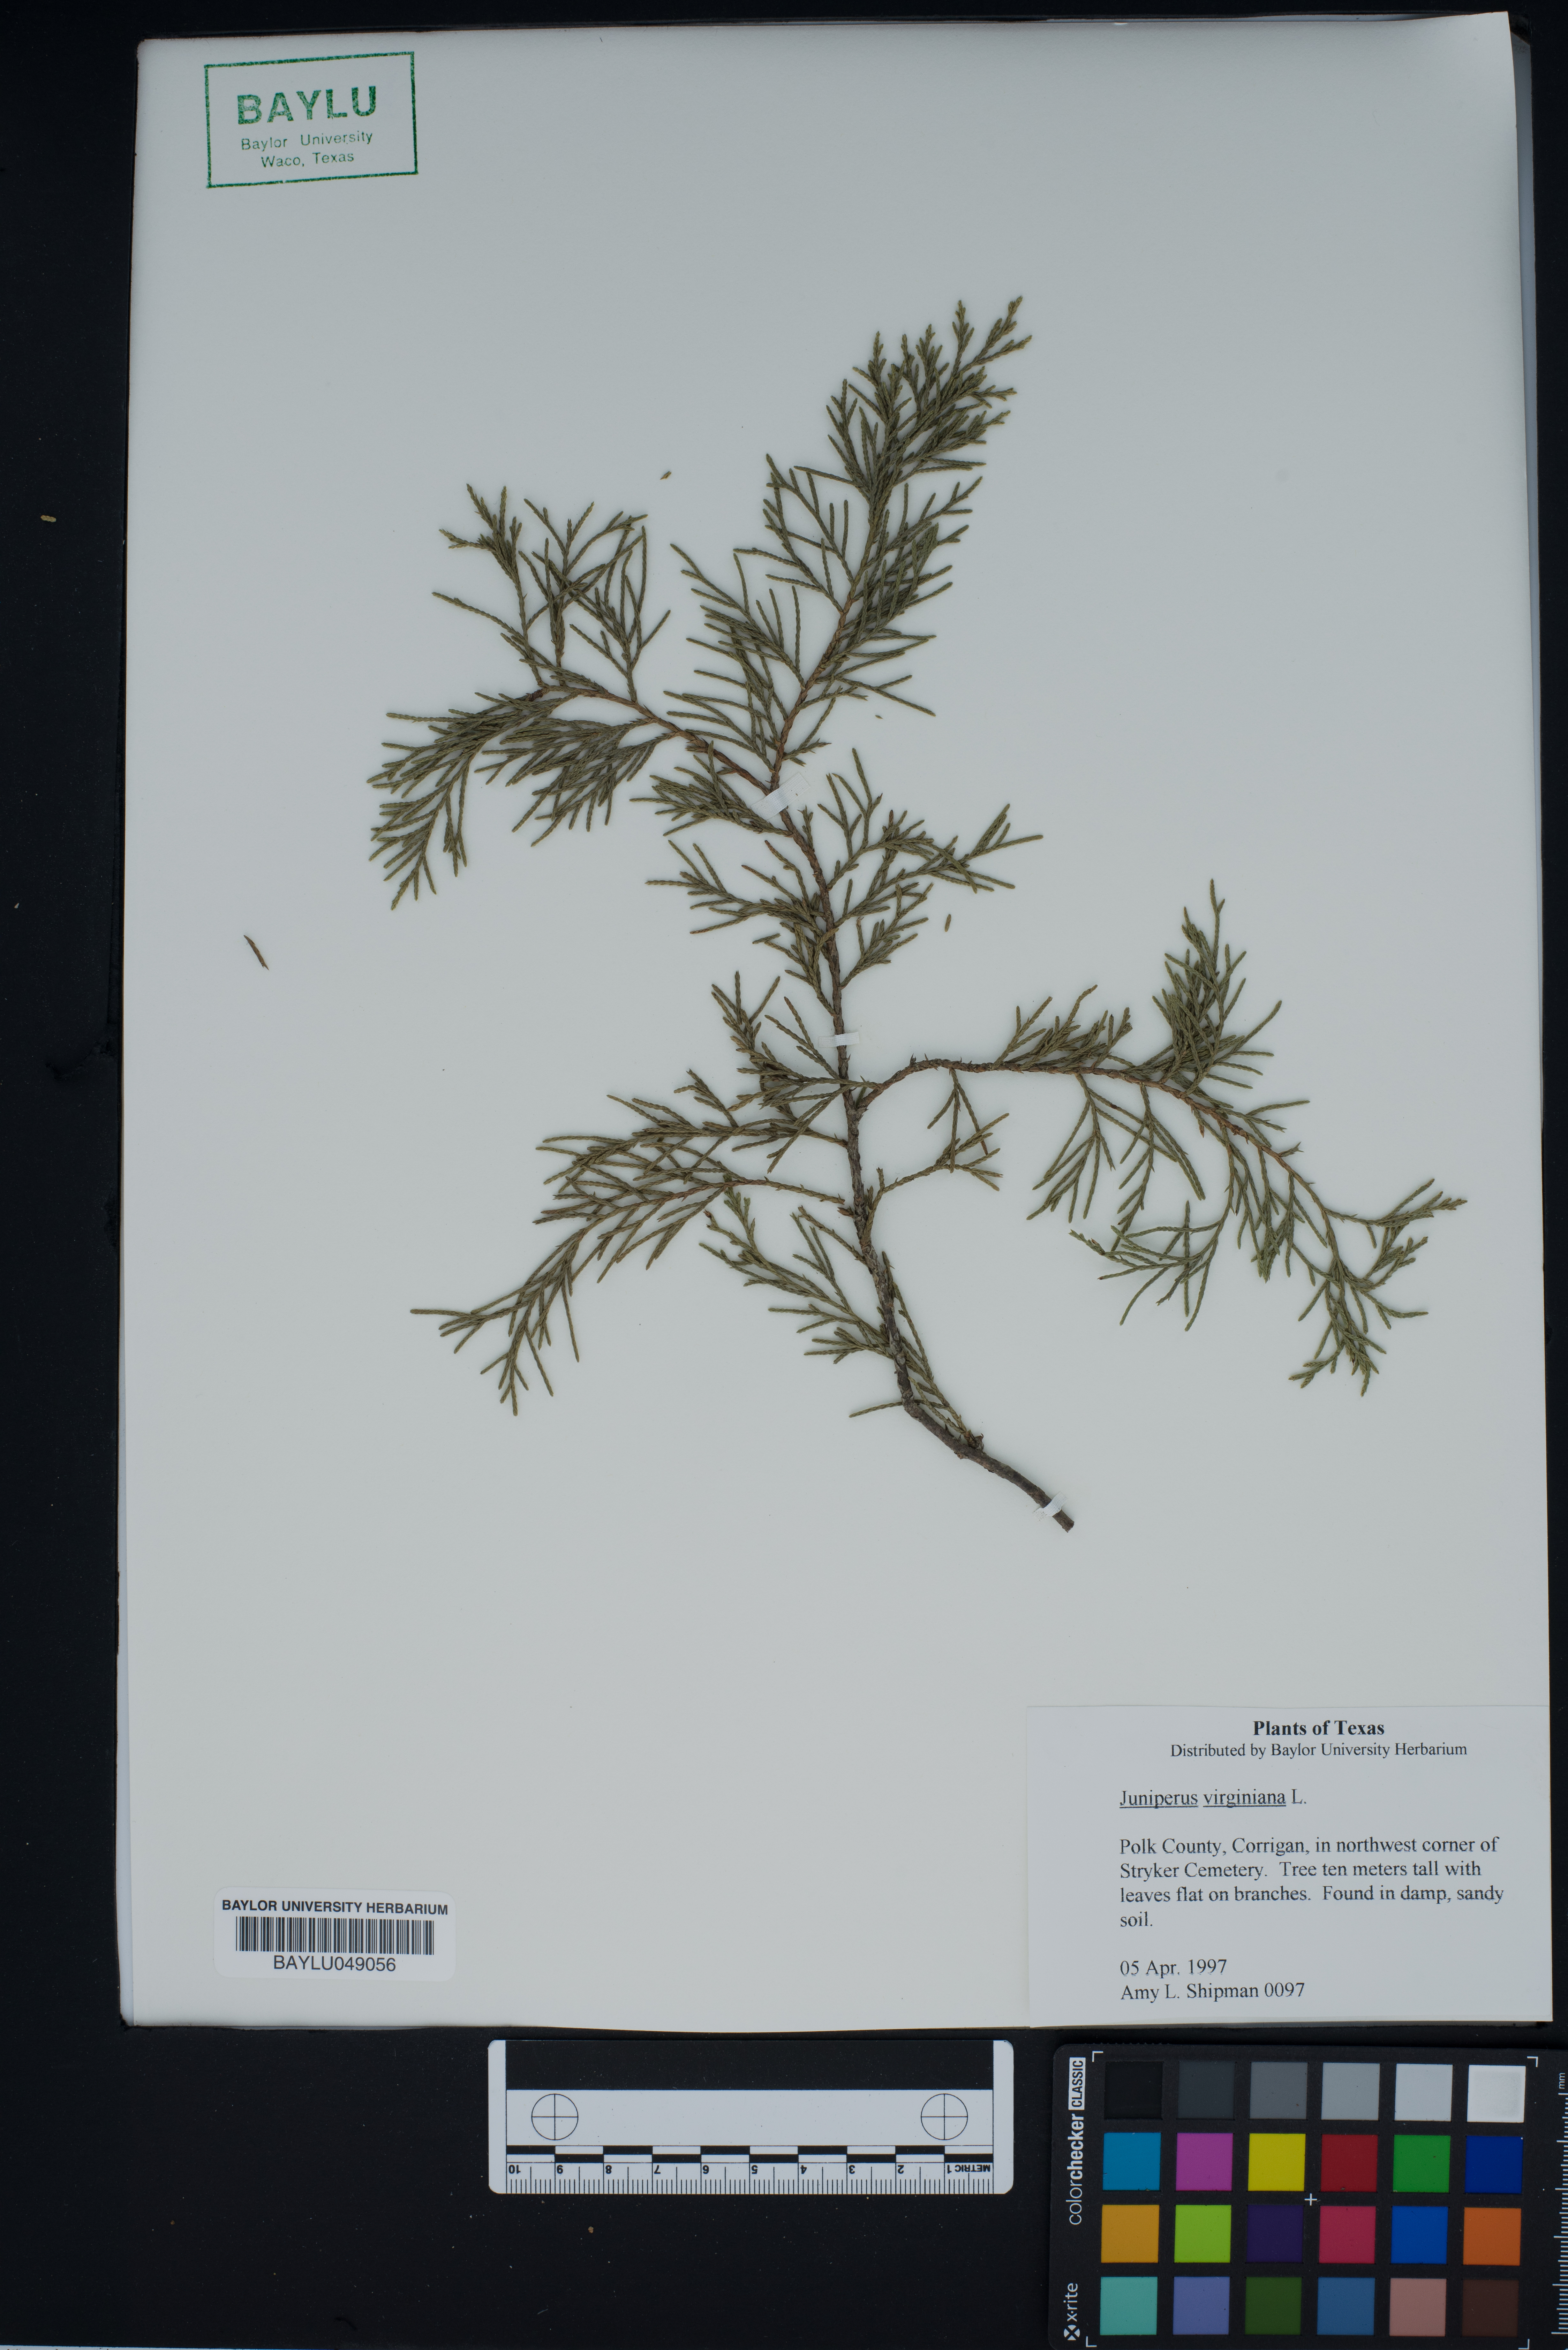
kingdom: Plantae
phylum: Tracheophyta
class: Pinopsida
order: Pinales
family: Cupressaceae
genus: Juniperus
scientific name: Juniperus virginiana
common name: Red juniper
